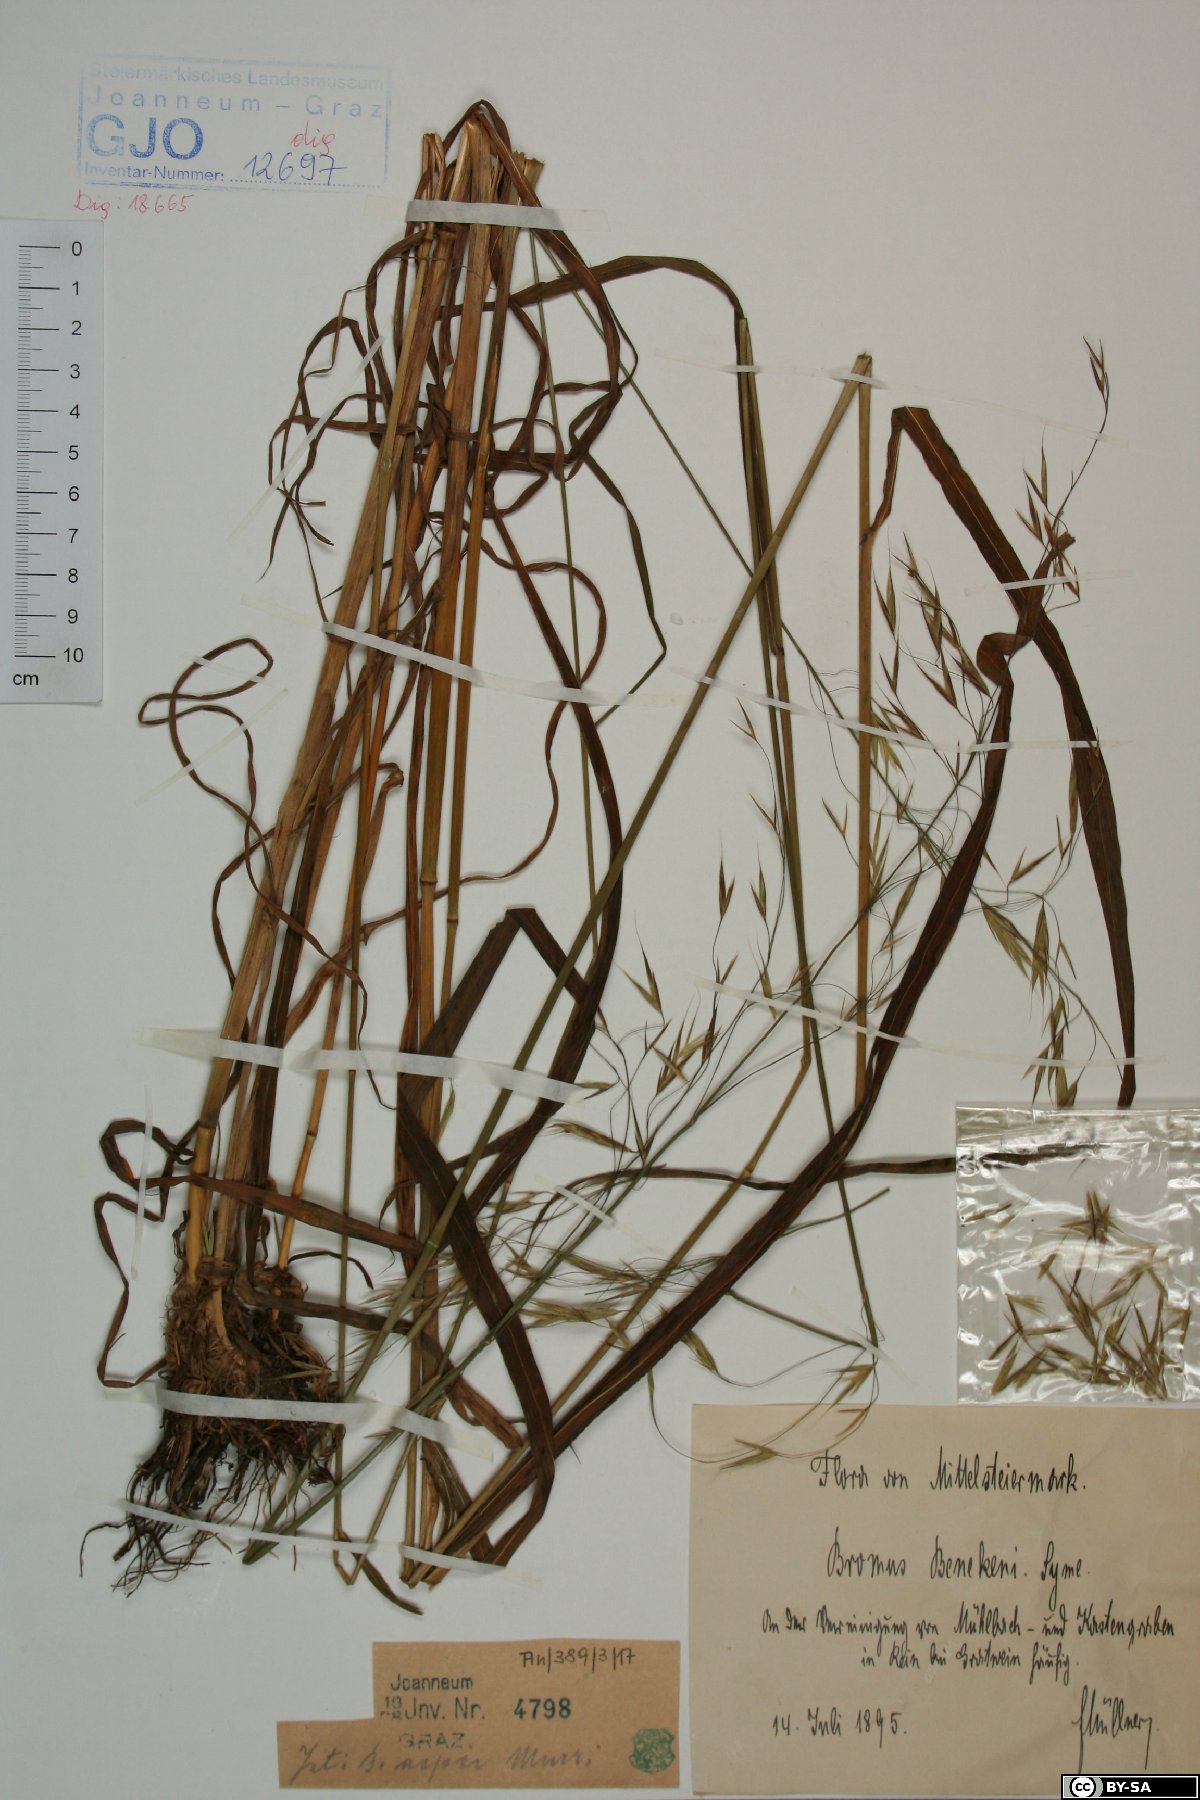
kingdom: Plantae
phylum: Tracheophyta
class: Liliopsida
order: Poales
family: Poaceae
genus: Bromus
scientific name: Bromus ramosus
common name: Hairy brome
